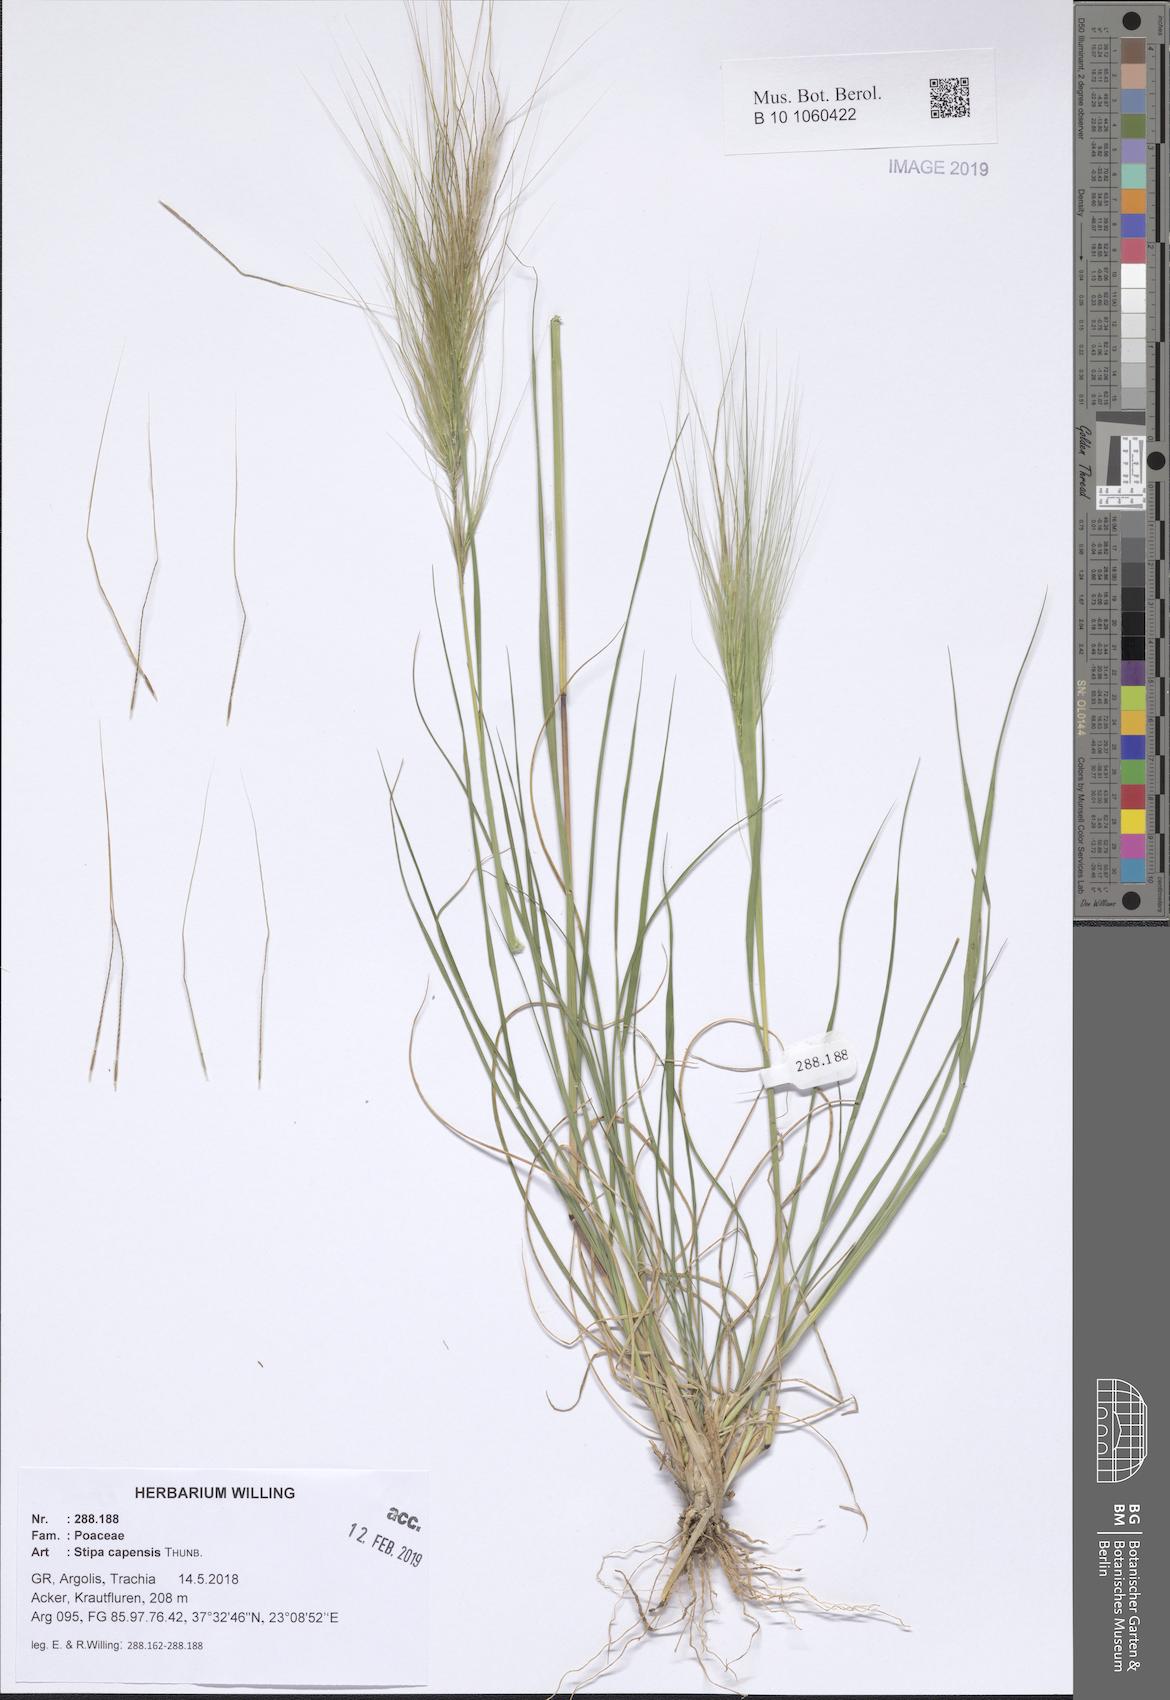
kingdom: Plantae
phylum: Tracheophyta
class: Liliopsida
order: Poales
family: Poaceae
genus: Stipellula
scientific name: Stipellula capensis
